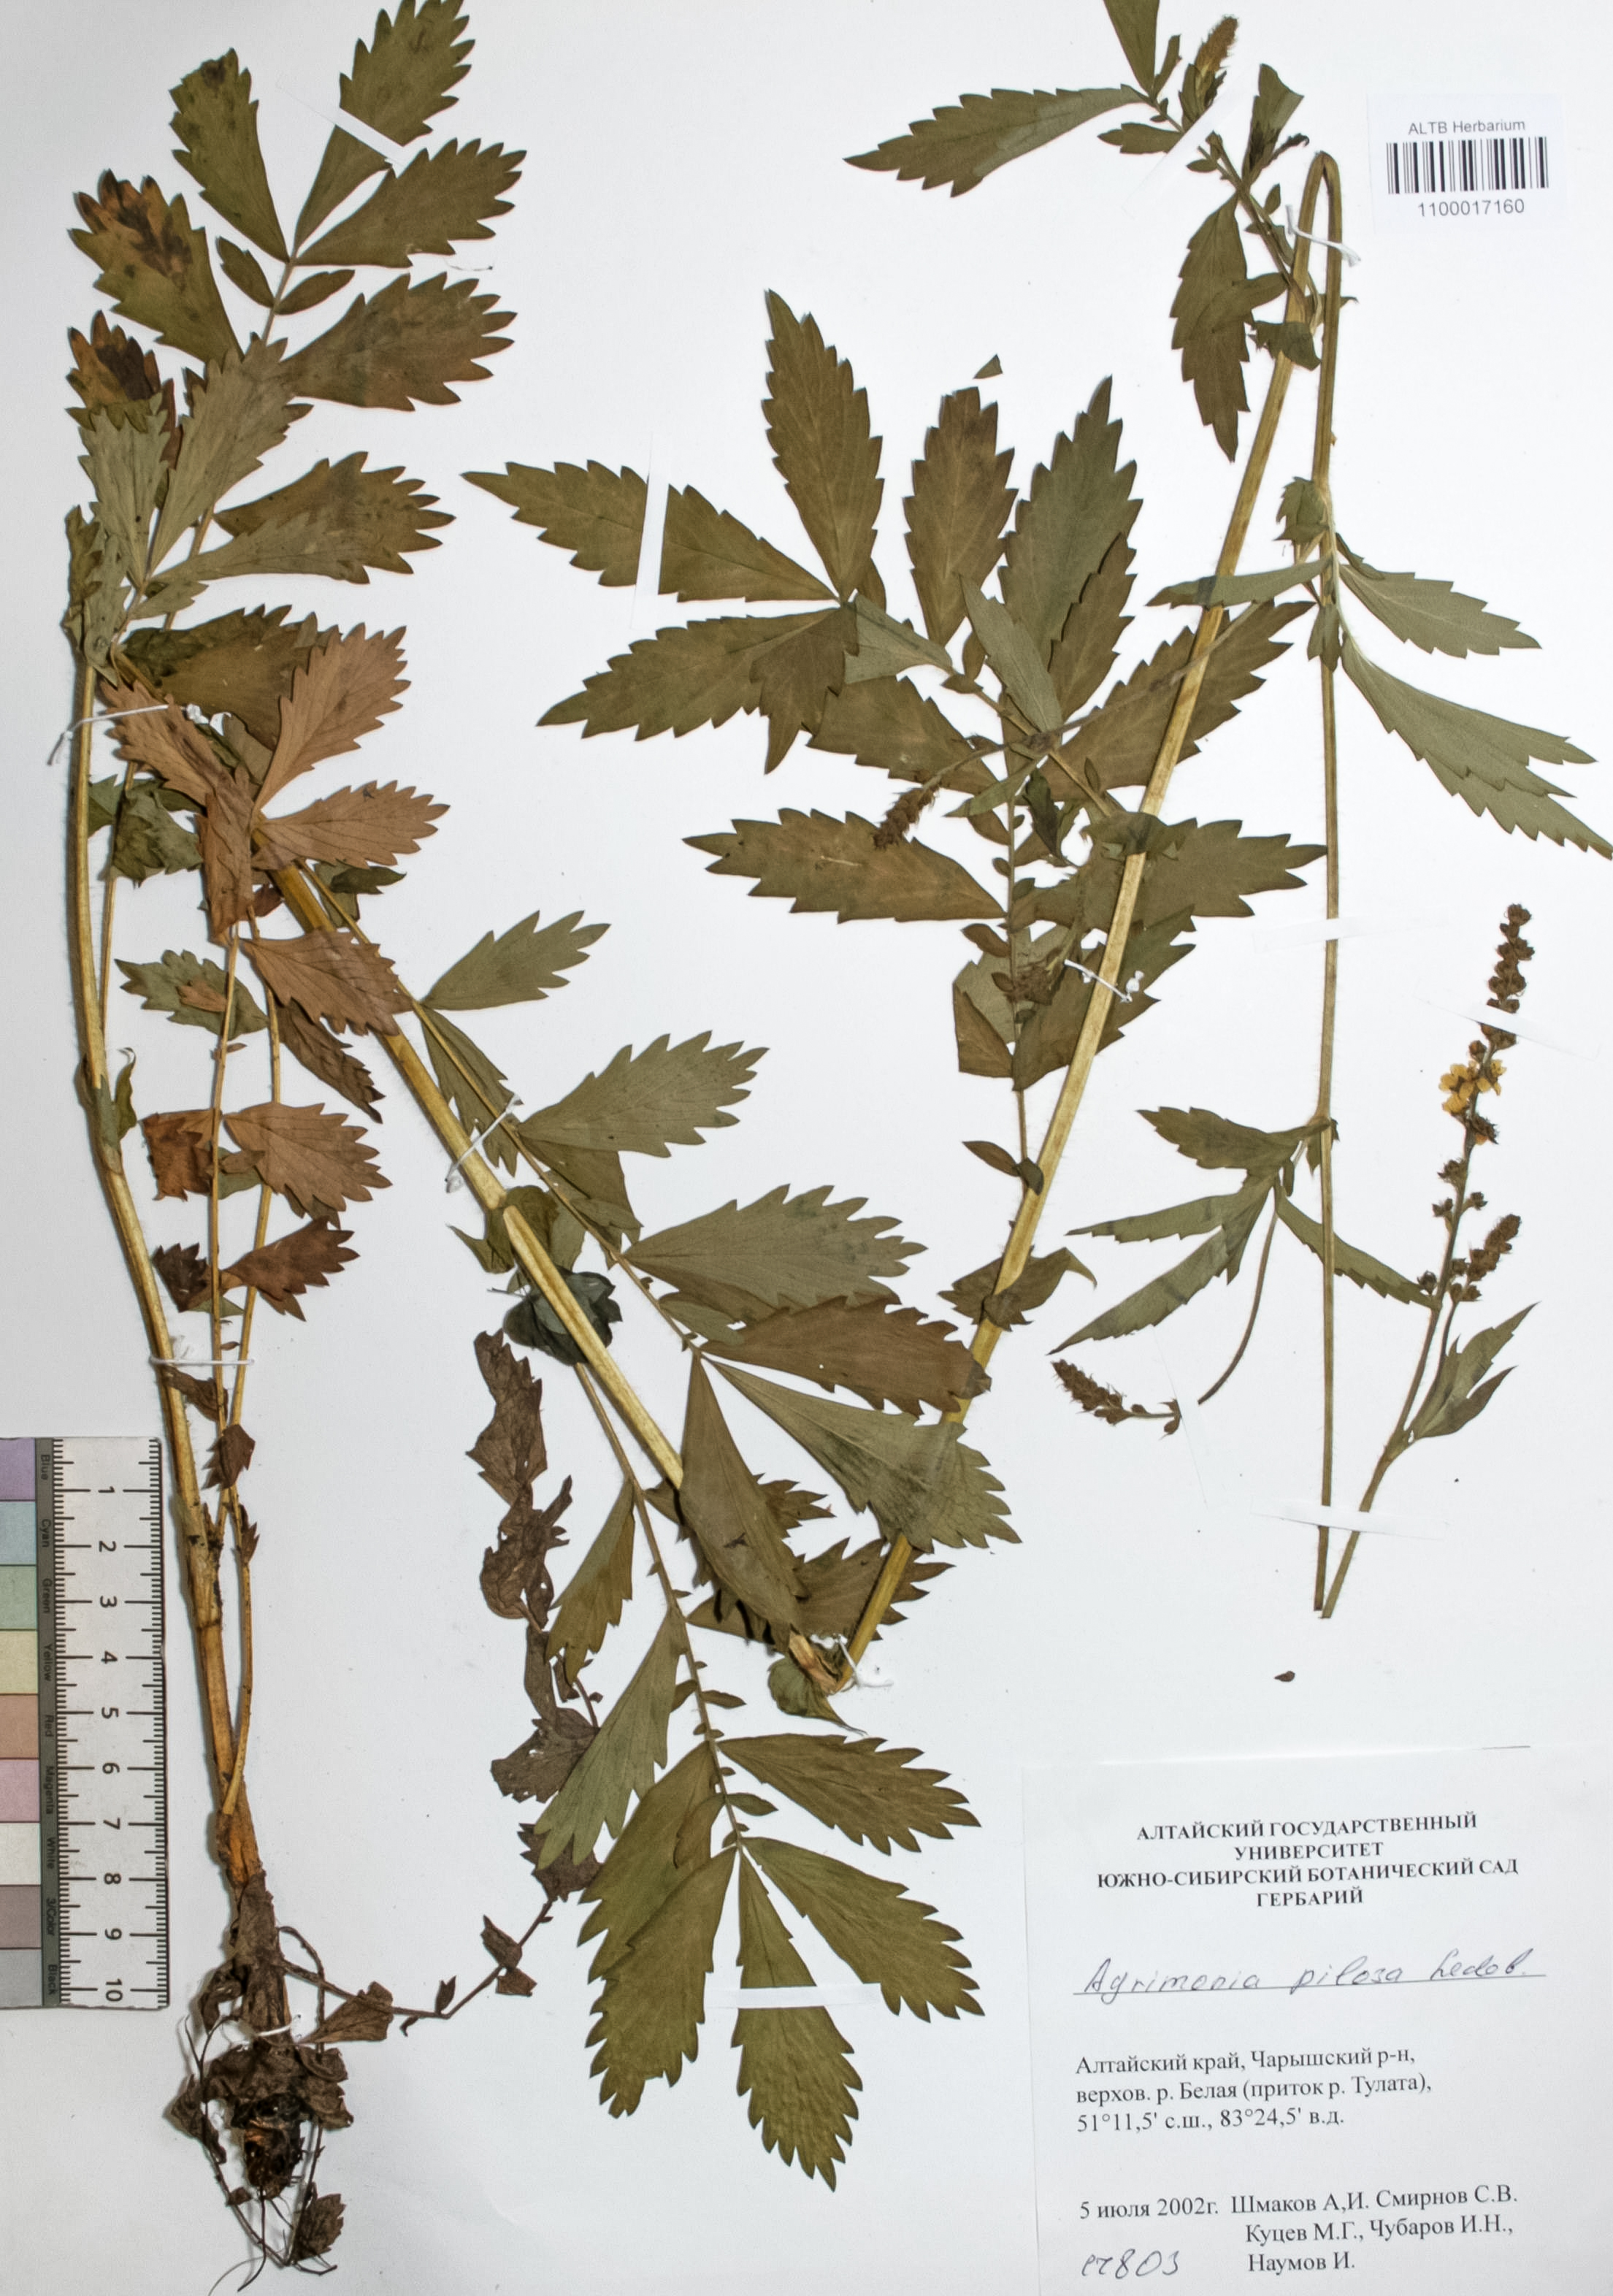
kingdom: Plantae
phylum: Tracheophyta
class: Magnoliopsida
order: Rosales
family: Rosaceae
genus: Agrimonia
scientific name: Agrimonia pilosa
